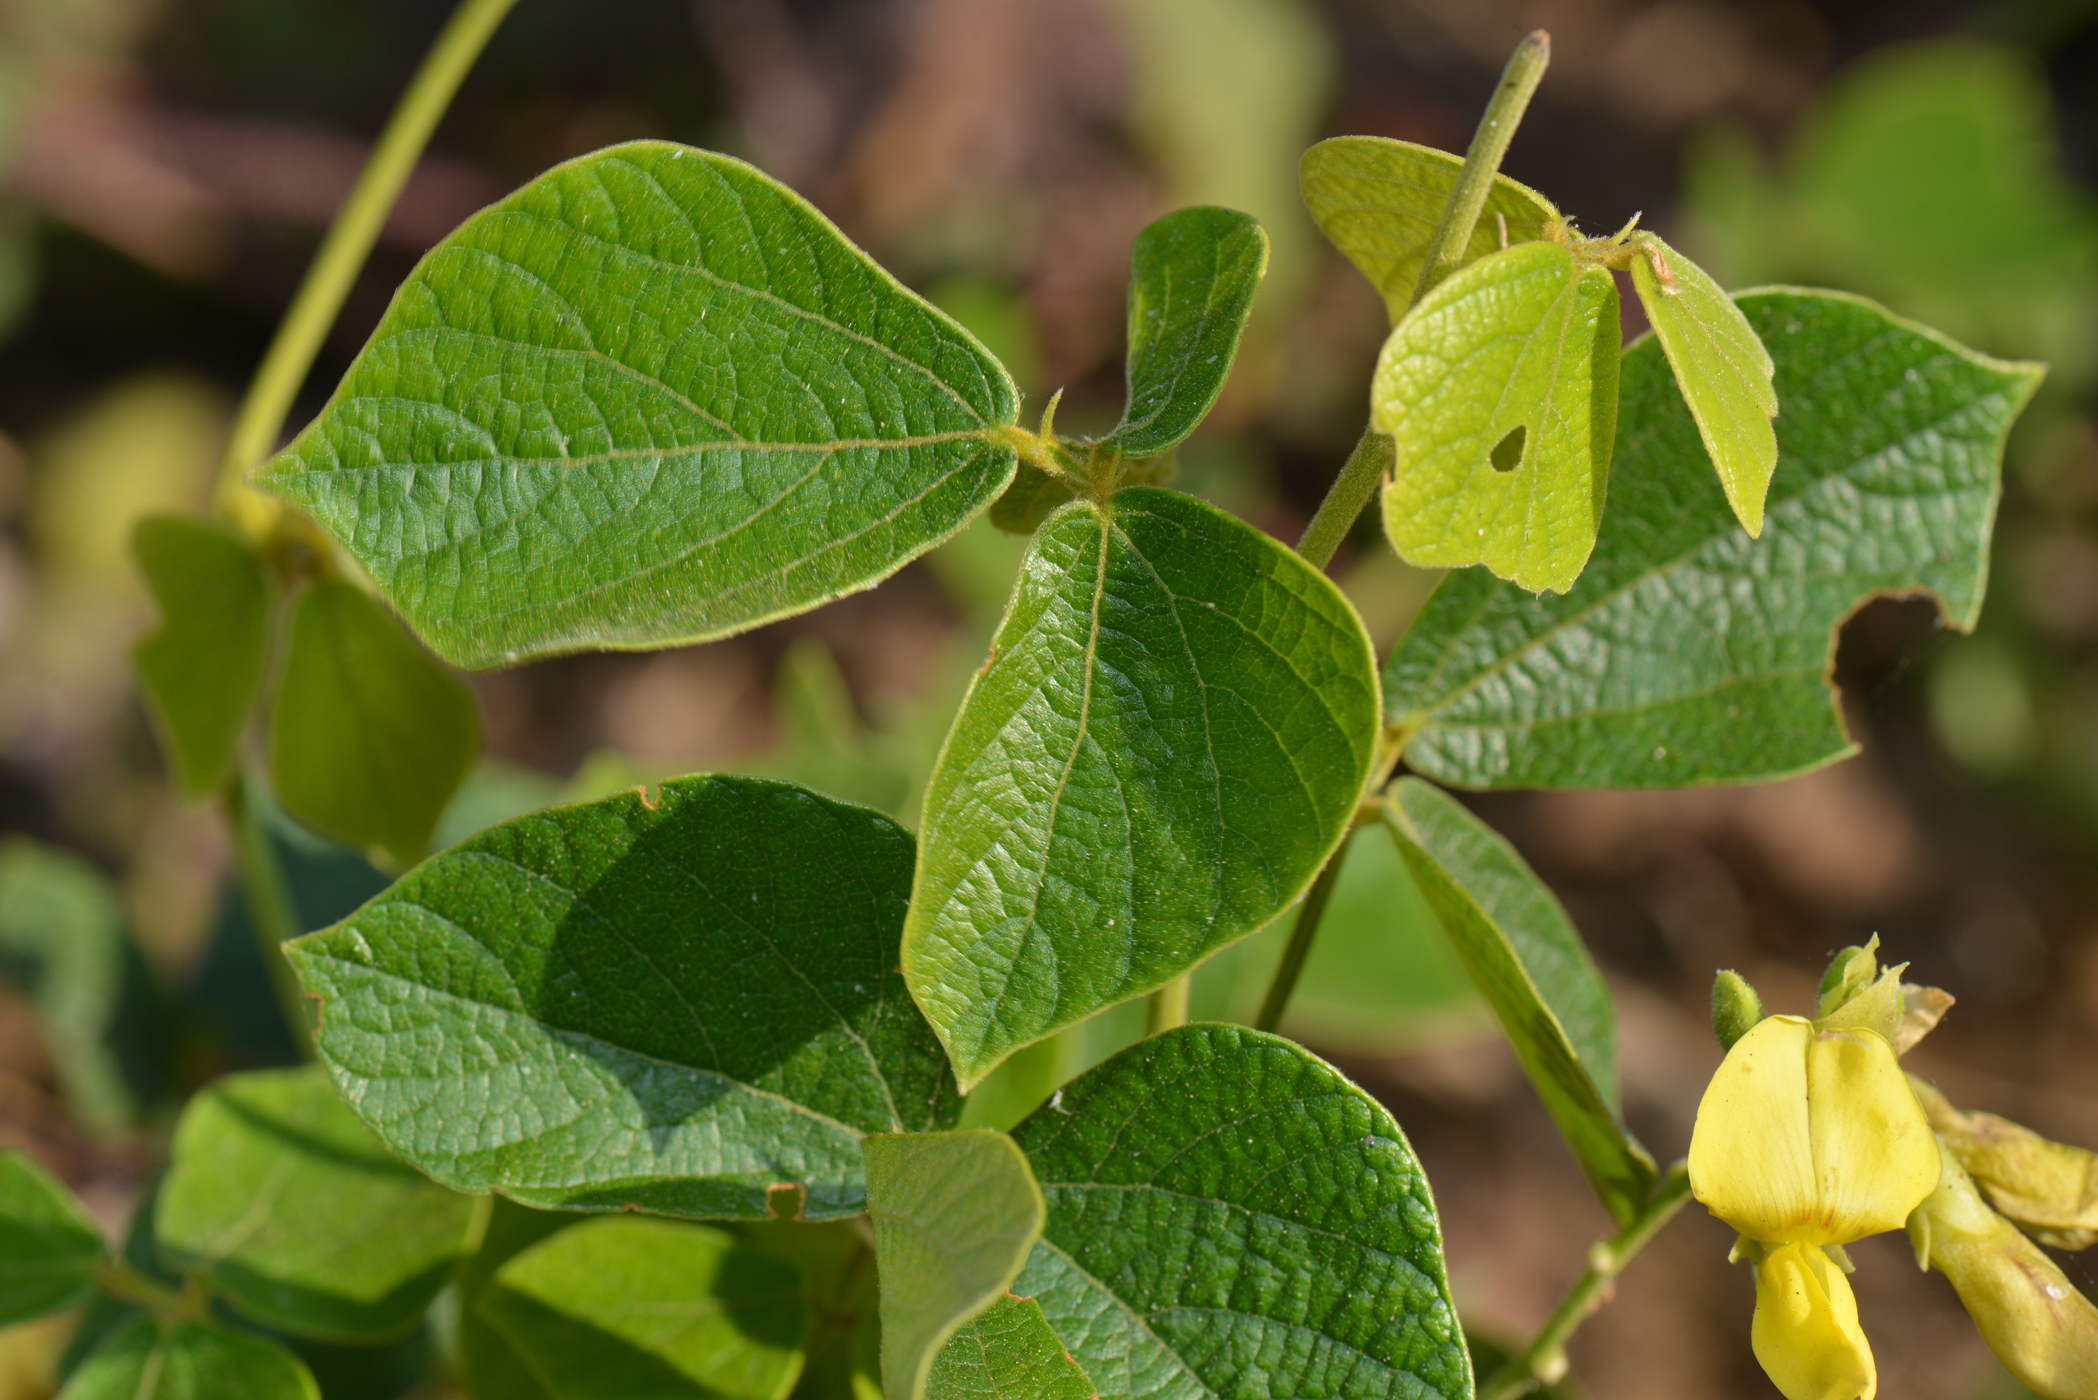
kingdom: Plantae
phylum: Tracheophyta
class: Magnoliopsida
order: Fabales
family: Fabaceae
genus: Cajanus
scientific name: Cajanus scarabaeoides
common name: Showy pigeonpea
